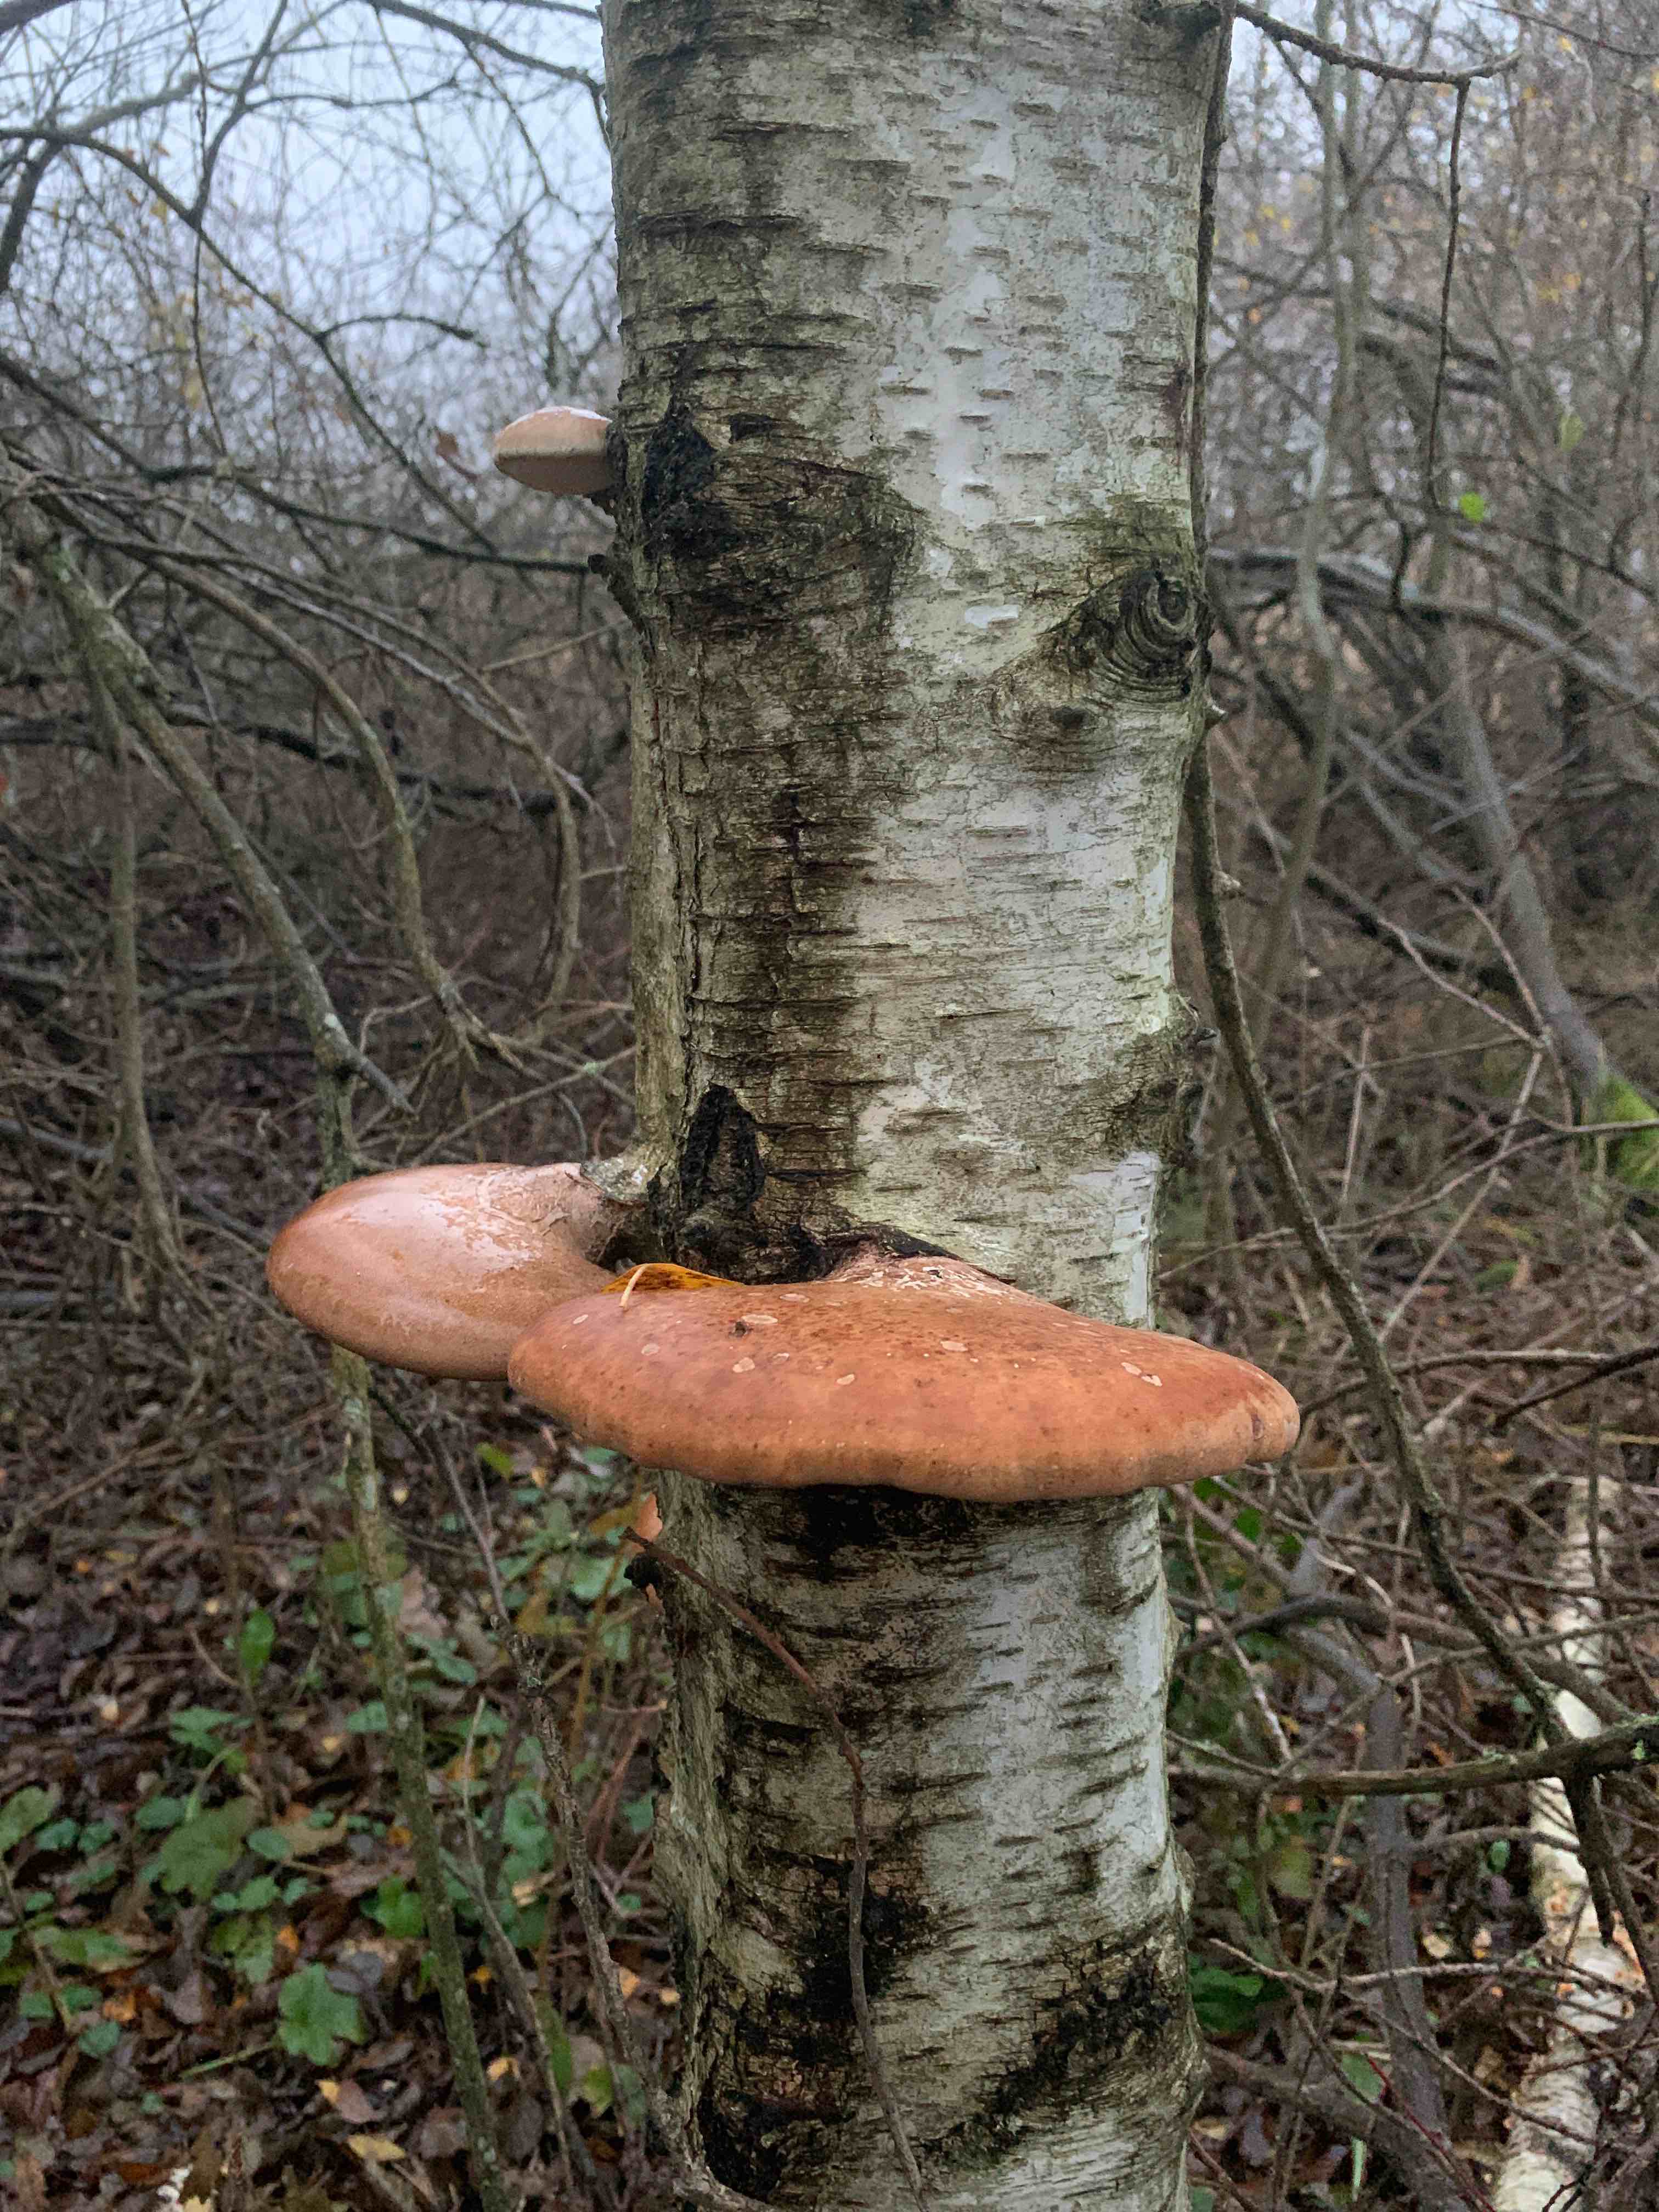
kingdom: Fungi
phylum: Basidiomycota
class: Agaricomycetes
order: Polyporales
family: Fomitopsidaceae
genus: Fomitopsis
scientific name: Fomitopsis betulina
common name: birkeporesvamp
